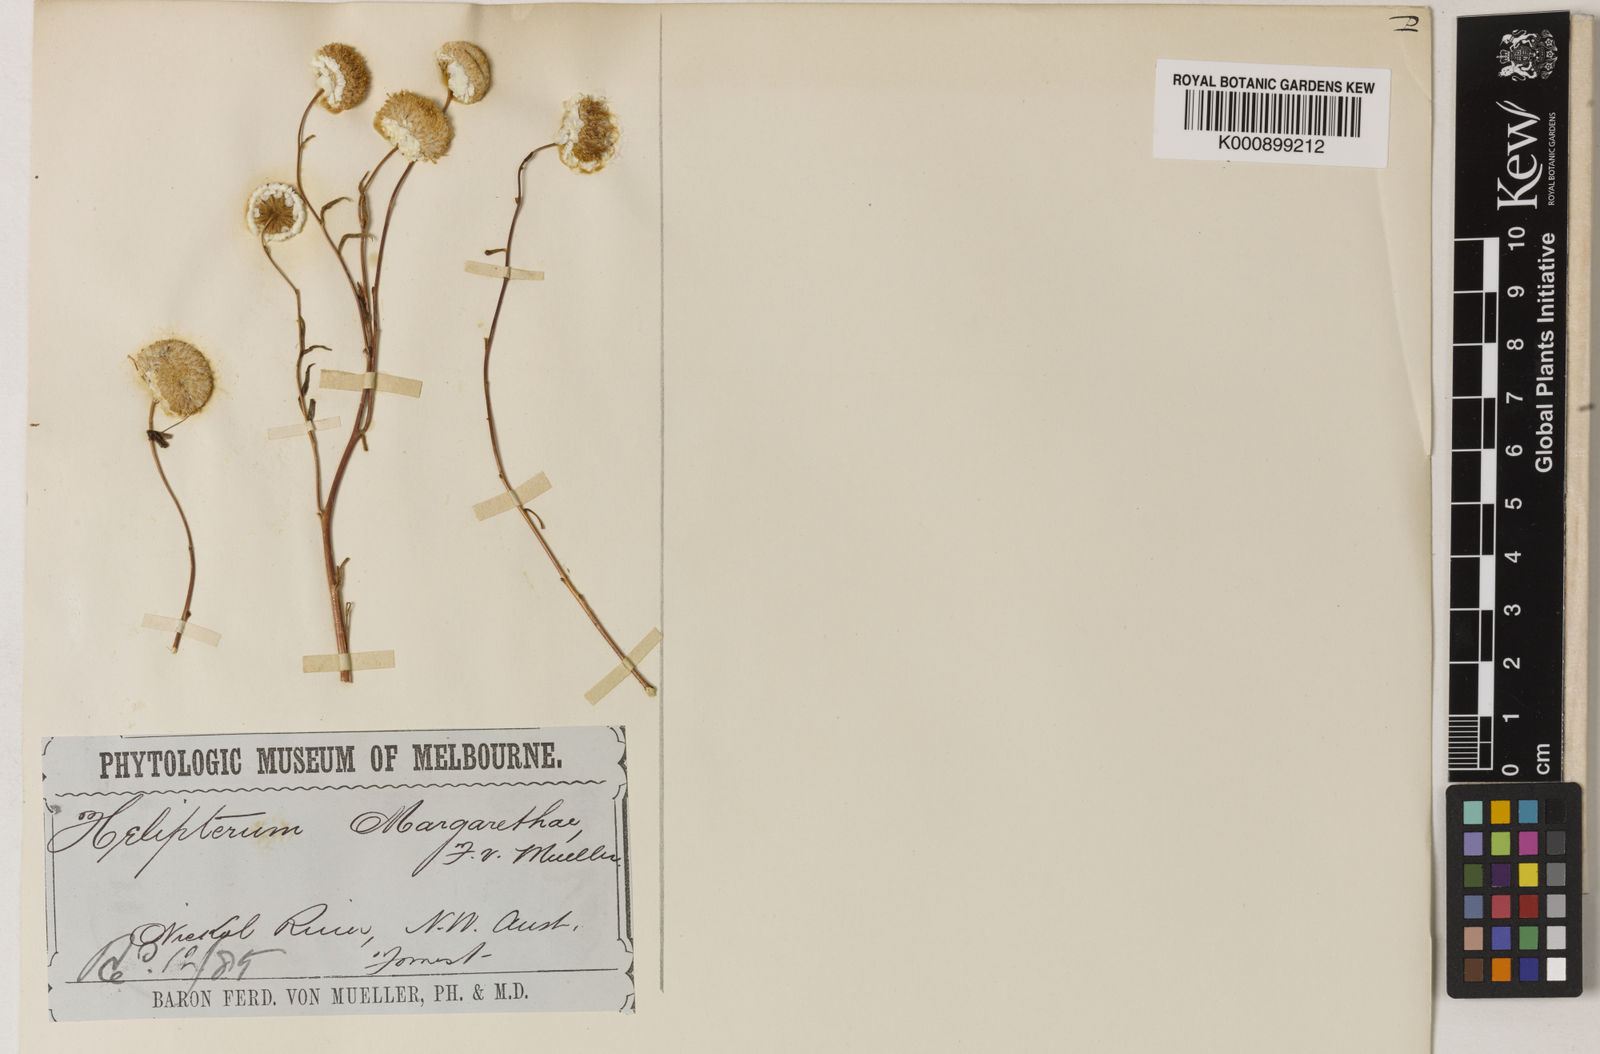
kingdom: Plantae
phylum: Tracheophyta
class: Magnoliopsida
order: Asterales
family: Asteraceae
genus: Rhodanthe
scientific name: Rhodanthe margarethae
